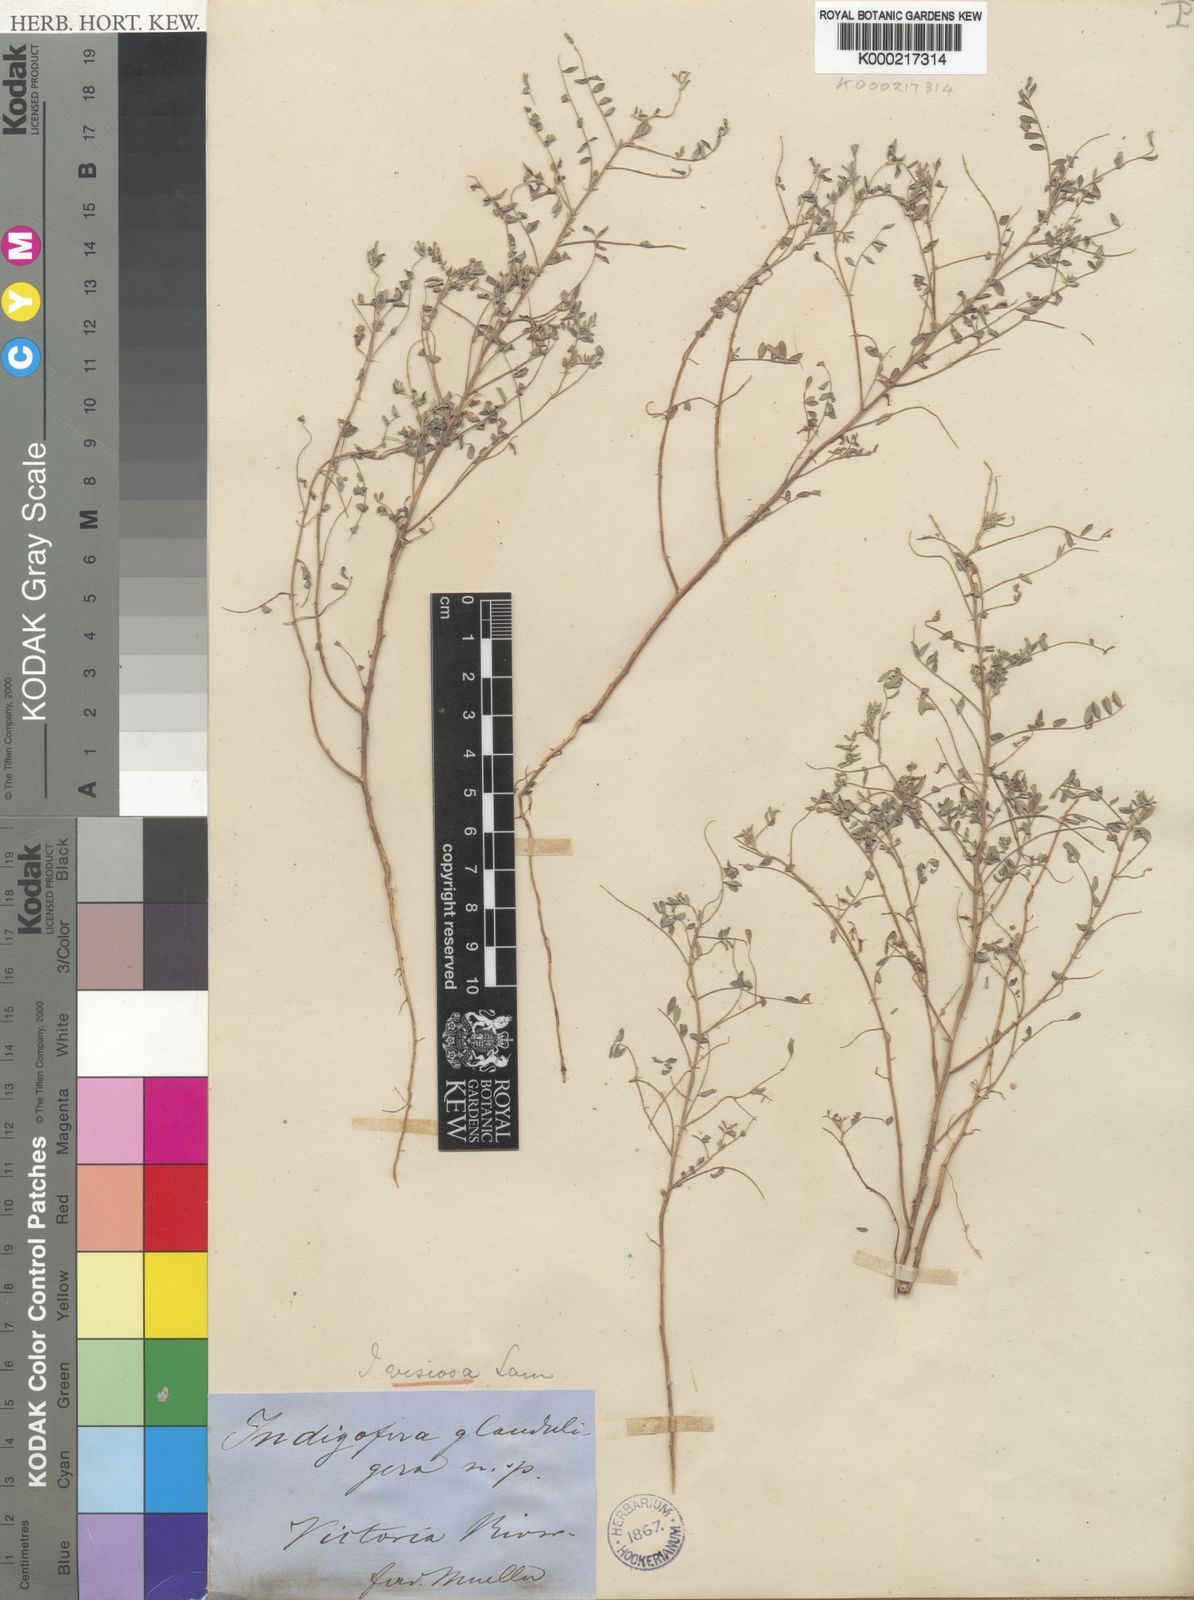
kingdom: Plantae
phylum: Tracheophyta
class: Magnoliopsida
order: Fabales
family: Fabaceae
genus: Indigofera
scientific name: Indigofera colutea
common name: Rusty indigo
